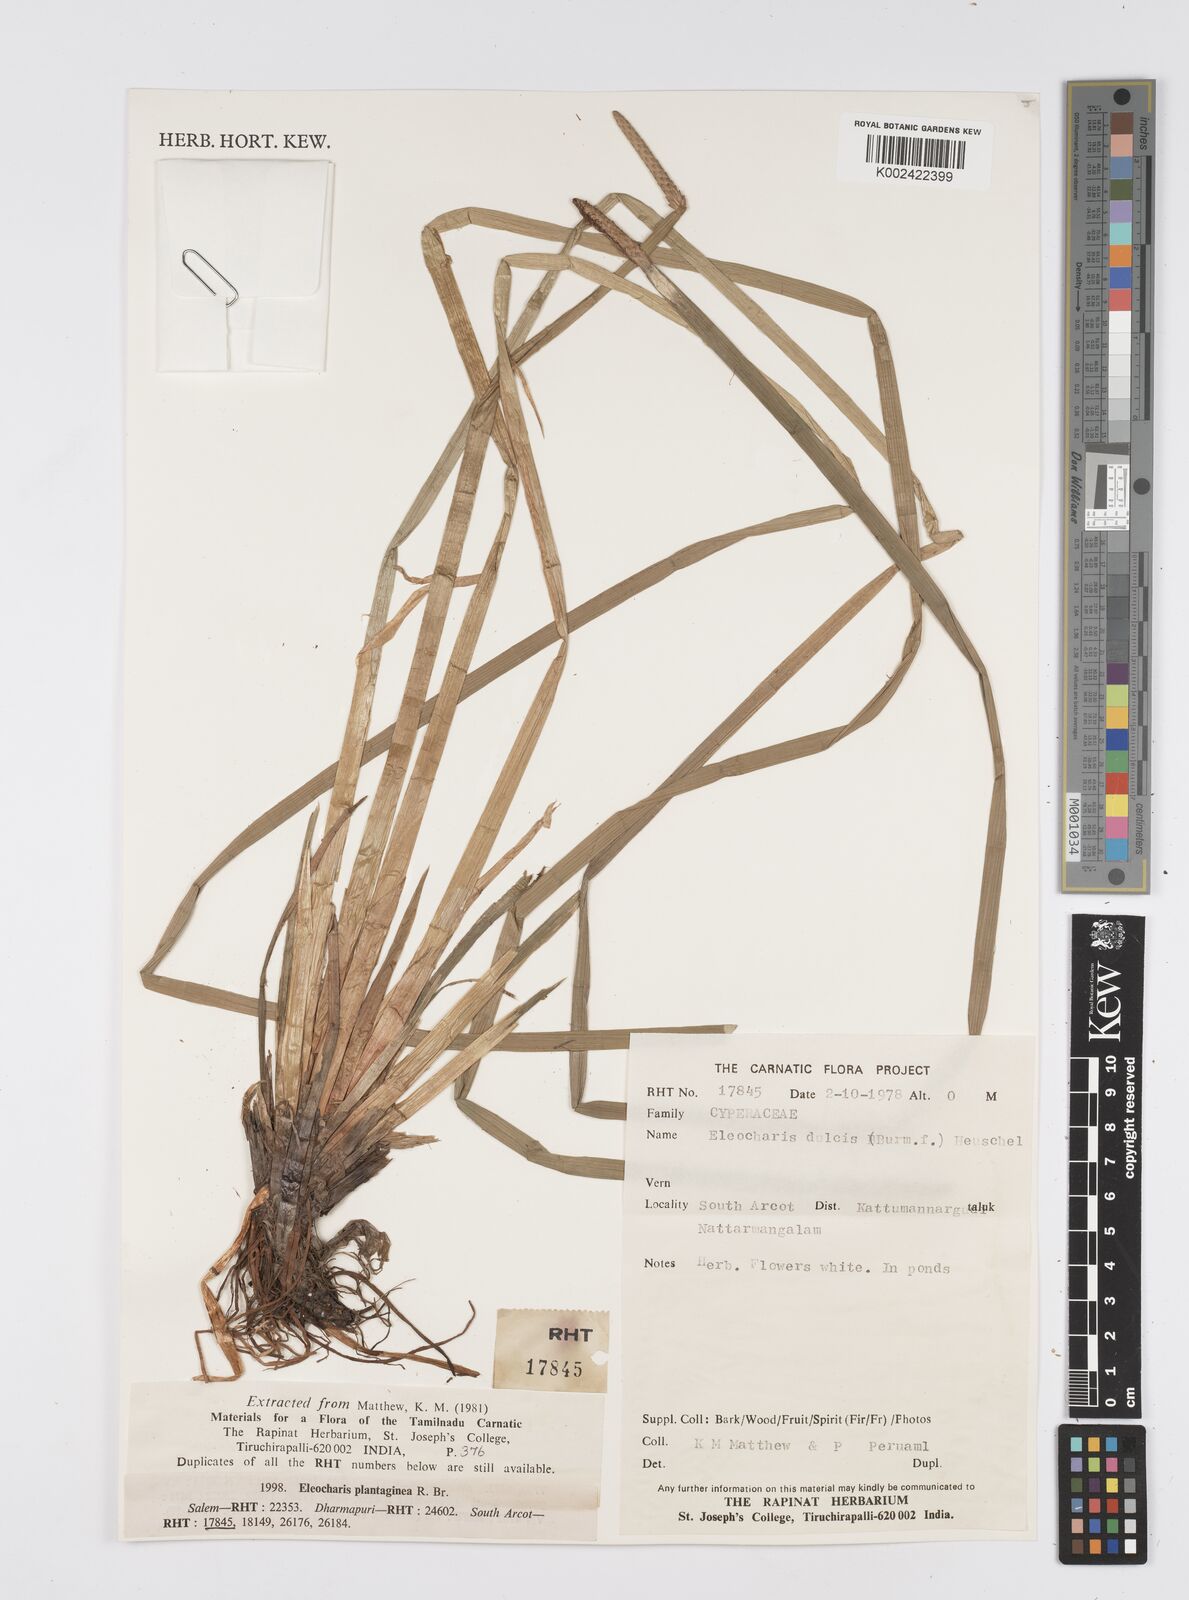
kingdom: Plantae
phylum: Tracheophyta
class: Liliopsida
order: Poales
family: Cyperaceae
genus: Eleocharis
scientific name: Eleocharis dulcis
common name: Chinese water chestnut
